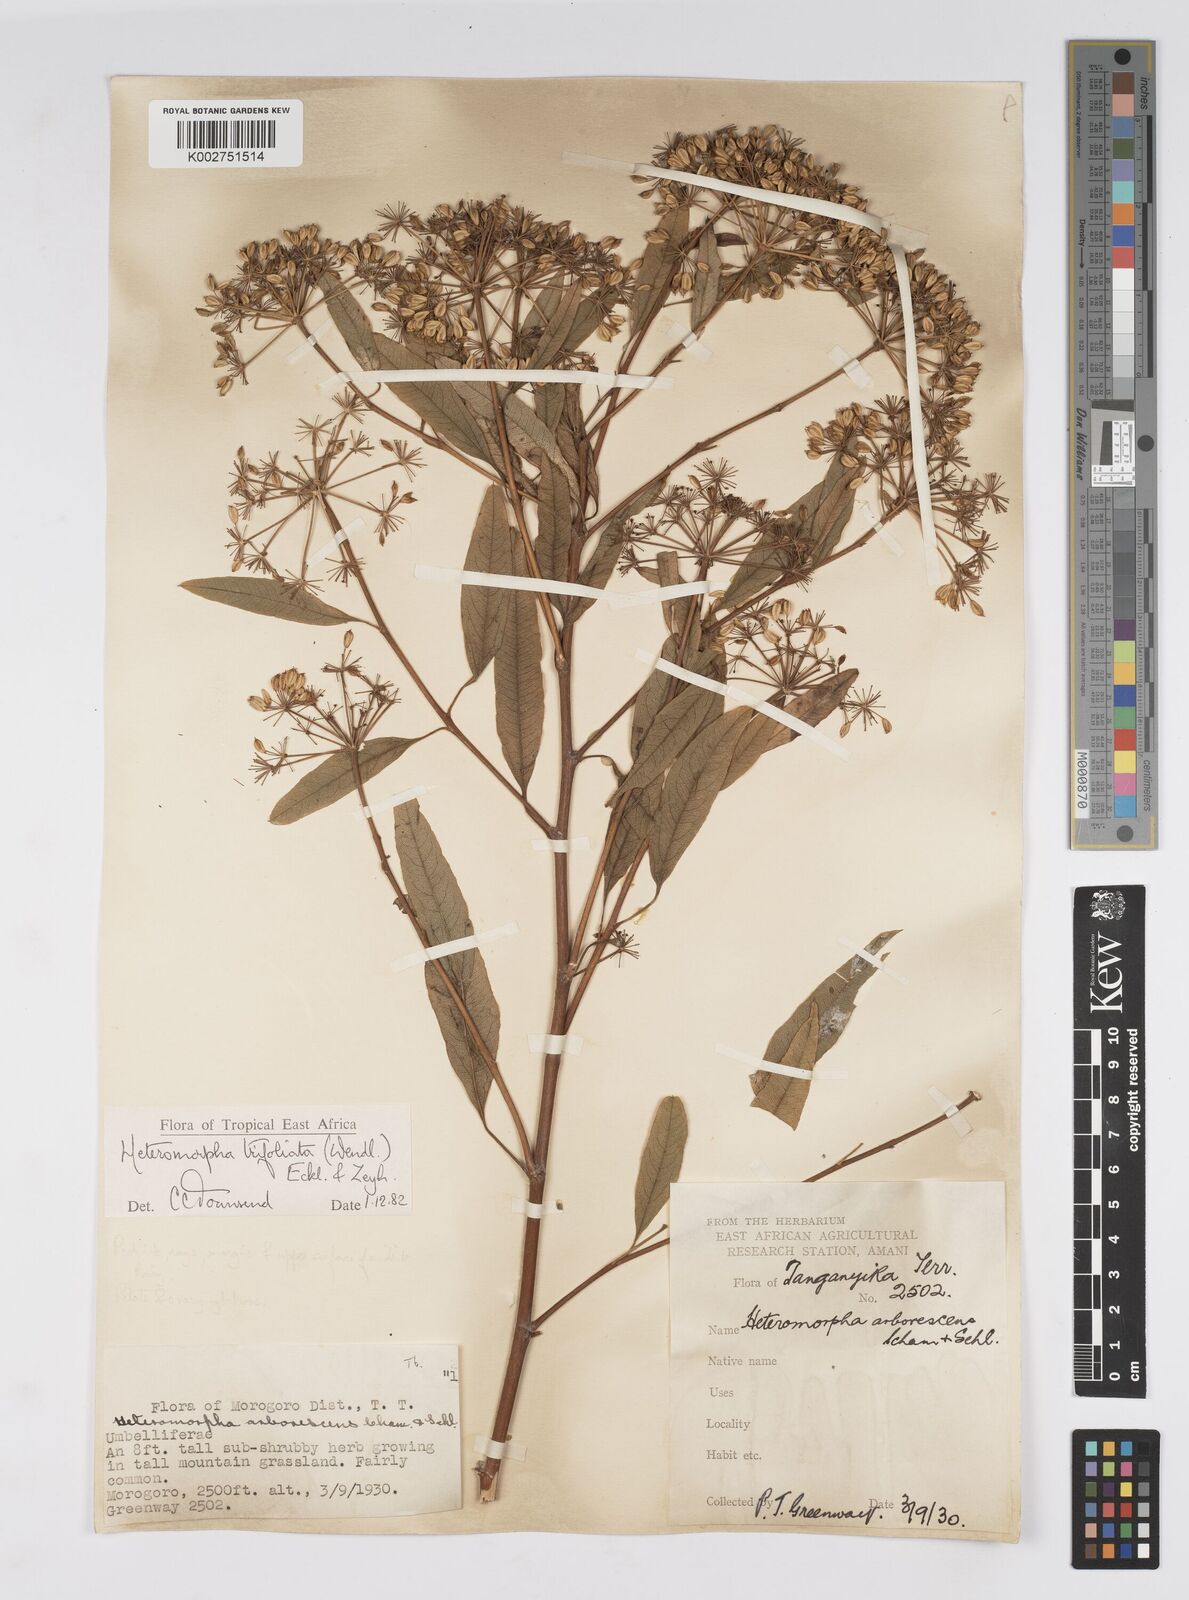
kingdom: Plantae
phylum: Tracheophyta
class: Magnoliopsida
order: Apiales
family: Apiaceae
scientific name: Apiaceae
